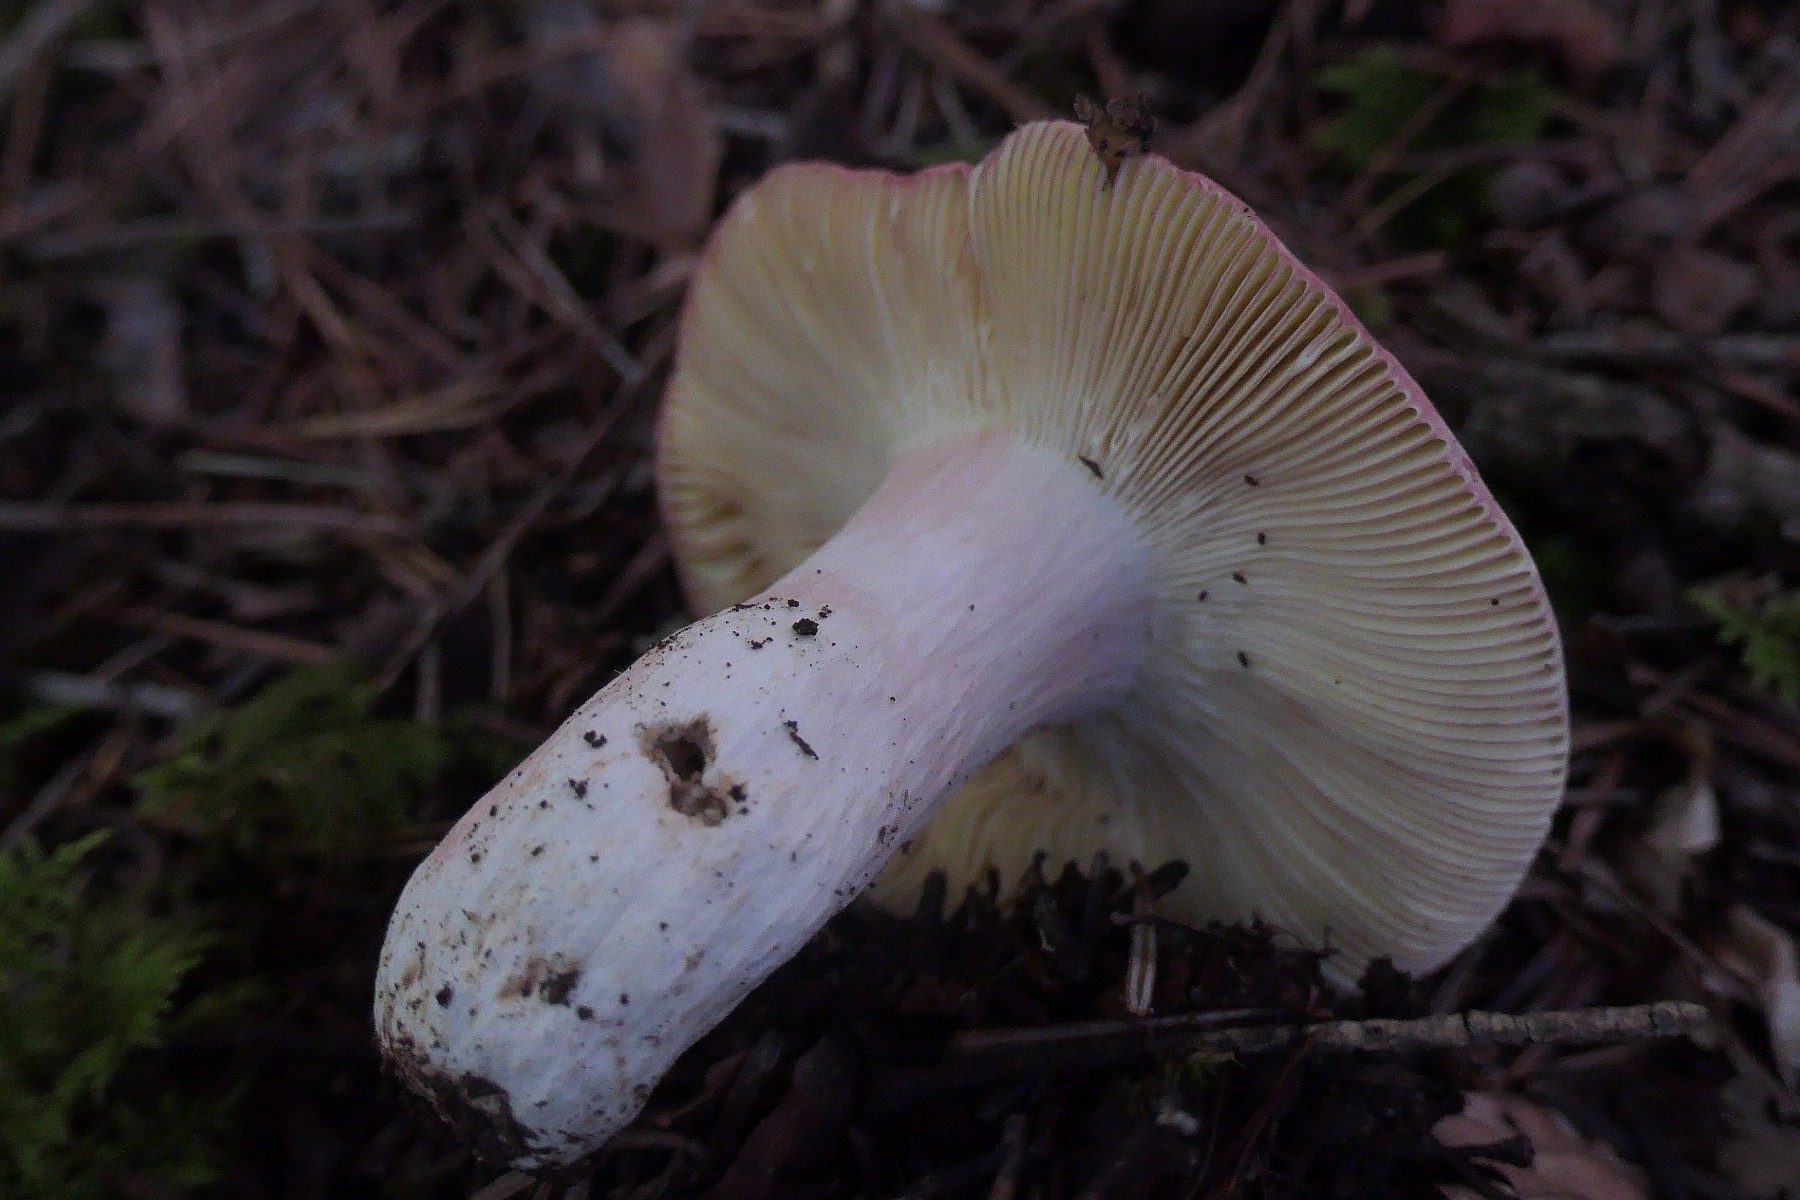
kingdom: Fungi
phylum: Basidiomycota
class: Agaricomycetes
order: Russulales
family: Russulaceae
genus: Russula
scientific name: Russula olivacea
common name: stor skørhat
